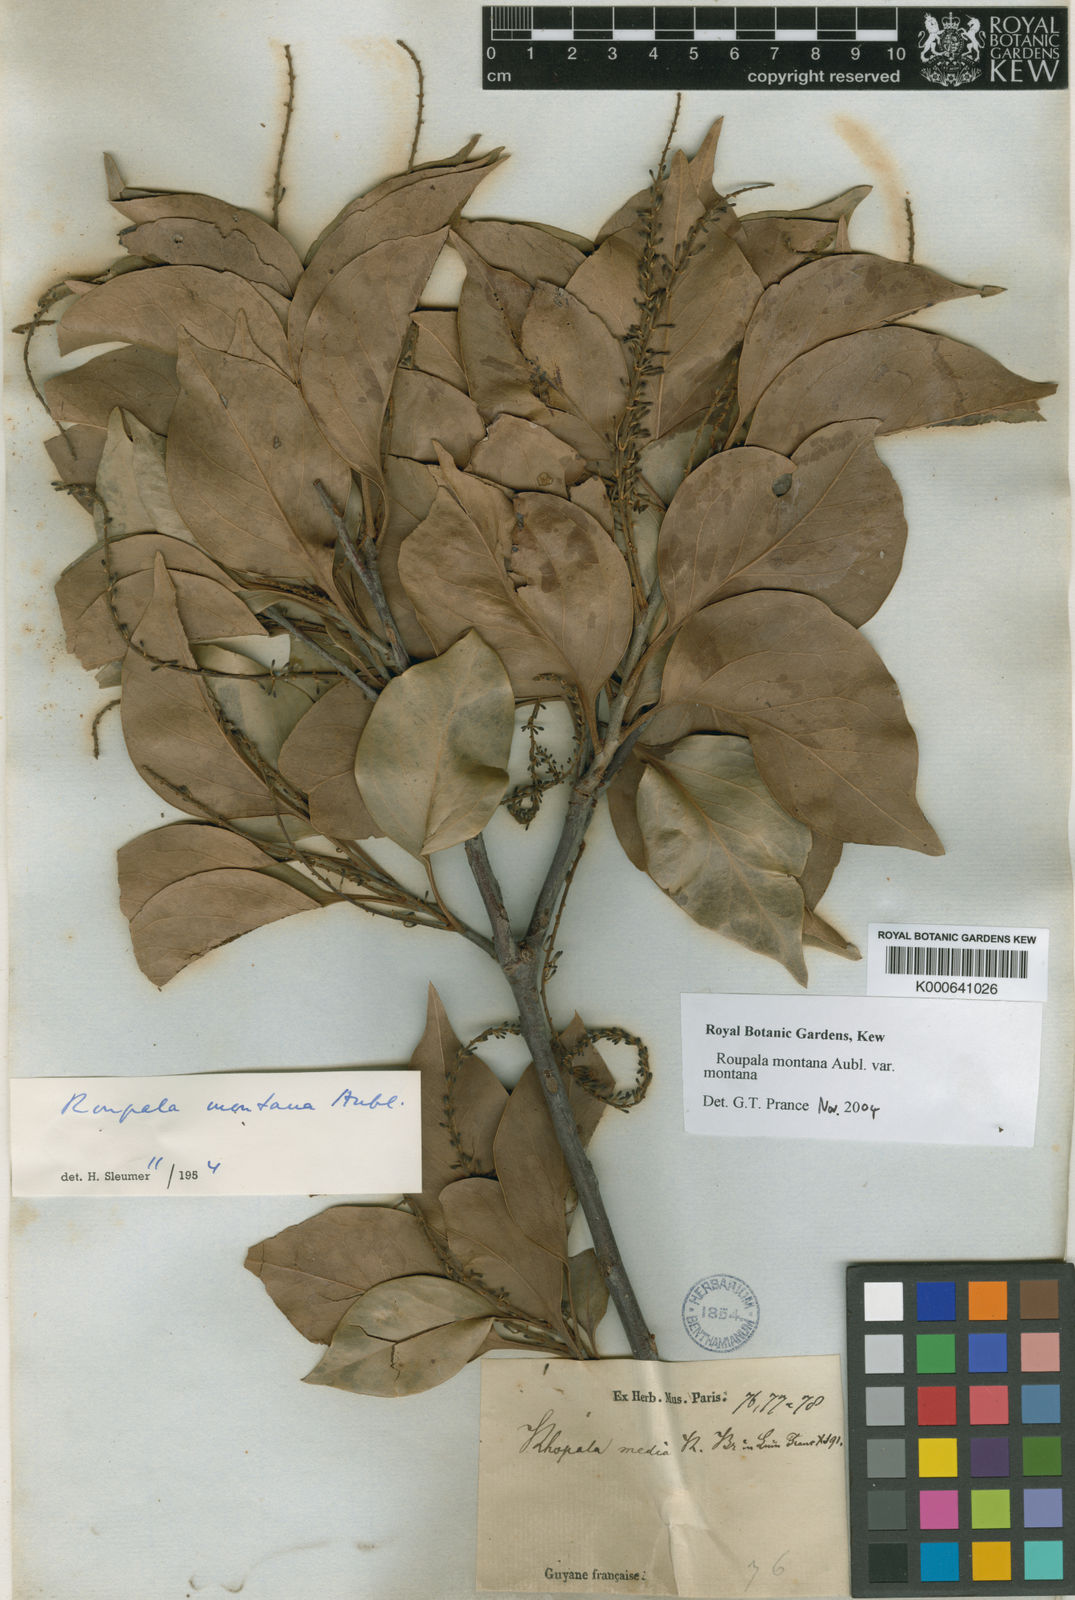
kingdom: Plantae
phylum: Tracheophyta
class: Magnoliopsida
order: Proteales
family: Proteaceae
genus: Roupala
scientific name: Roupala montana
